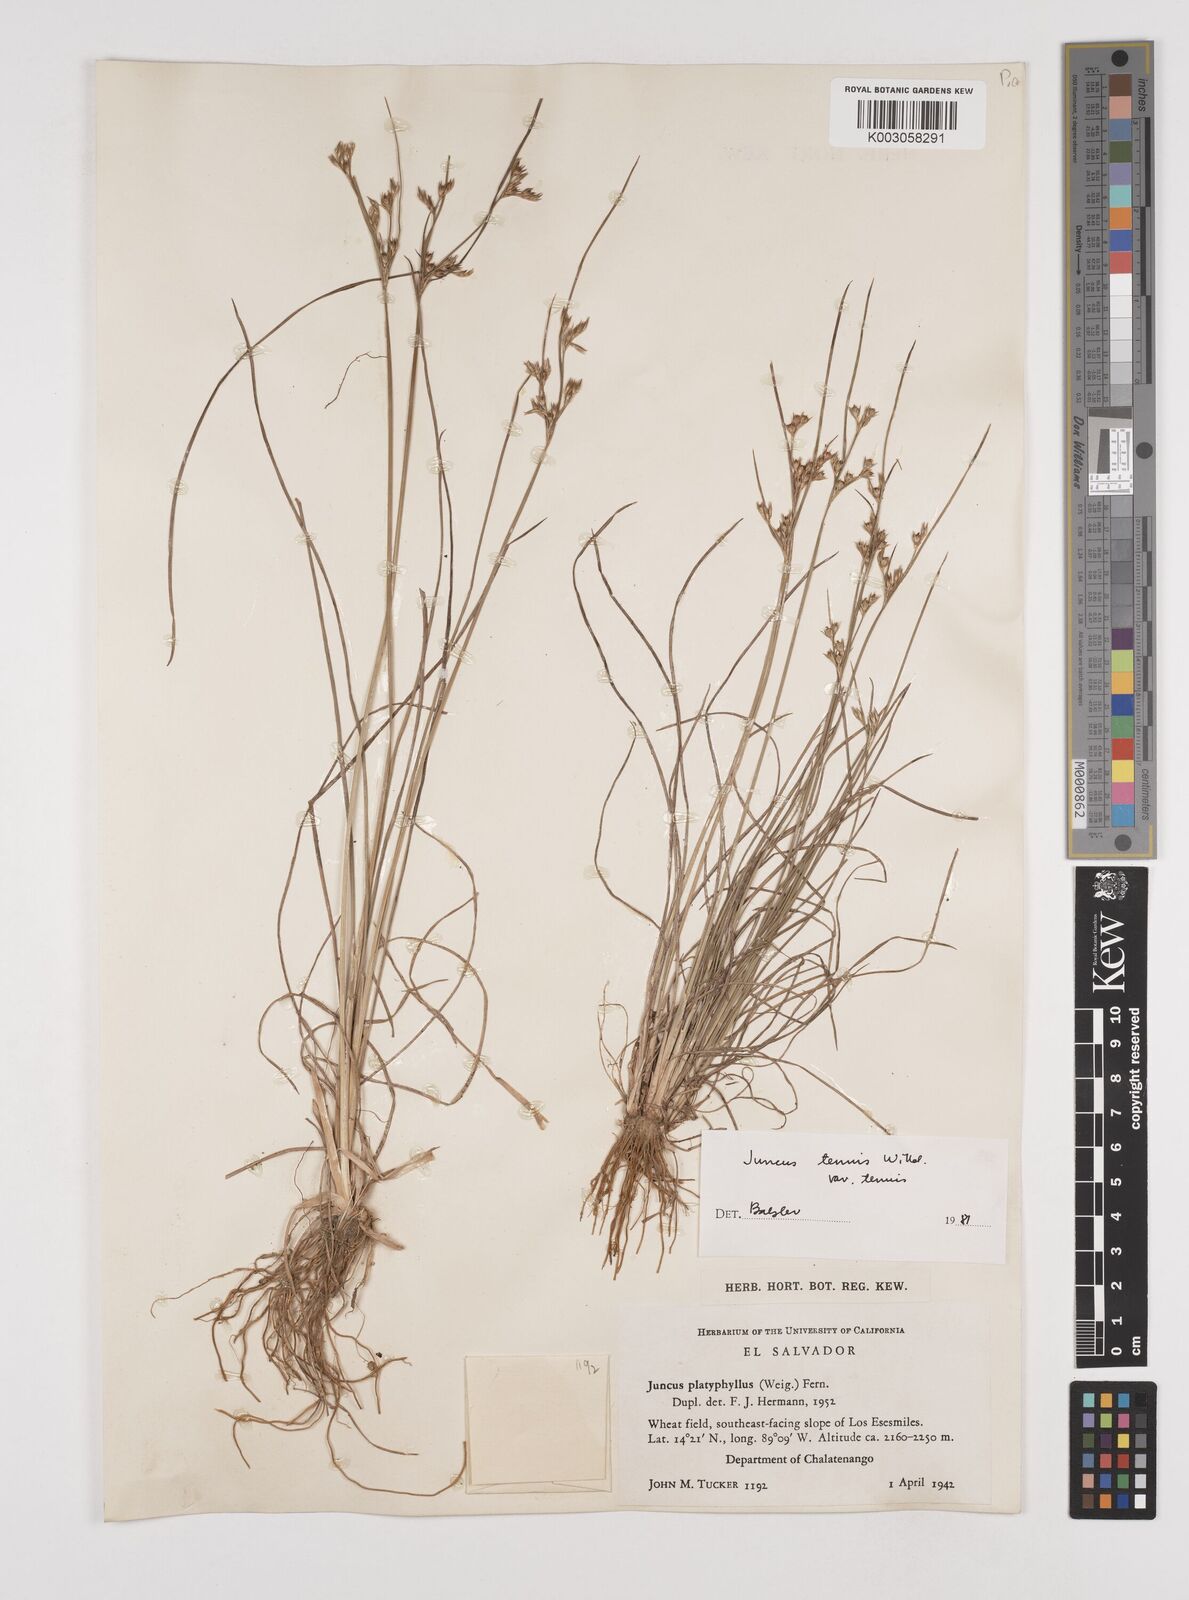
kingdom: Plantae
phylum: Tracheophyta
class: Liliopsida
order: Poales
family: Juncaceae
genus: Juncus
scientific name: Juncus tenuis
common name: Slender rush
